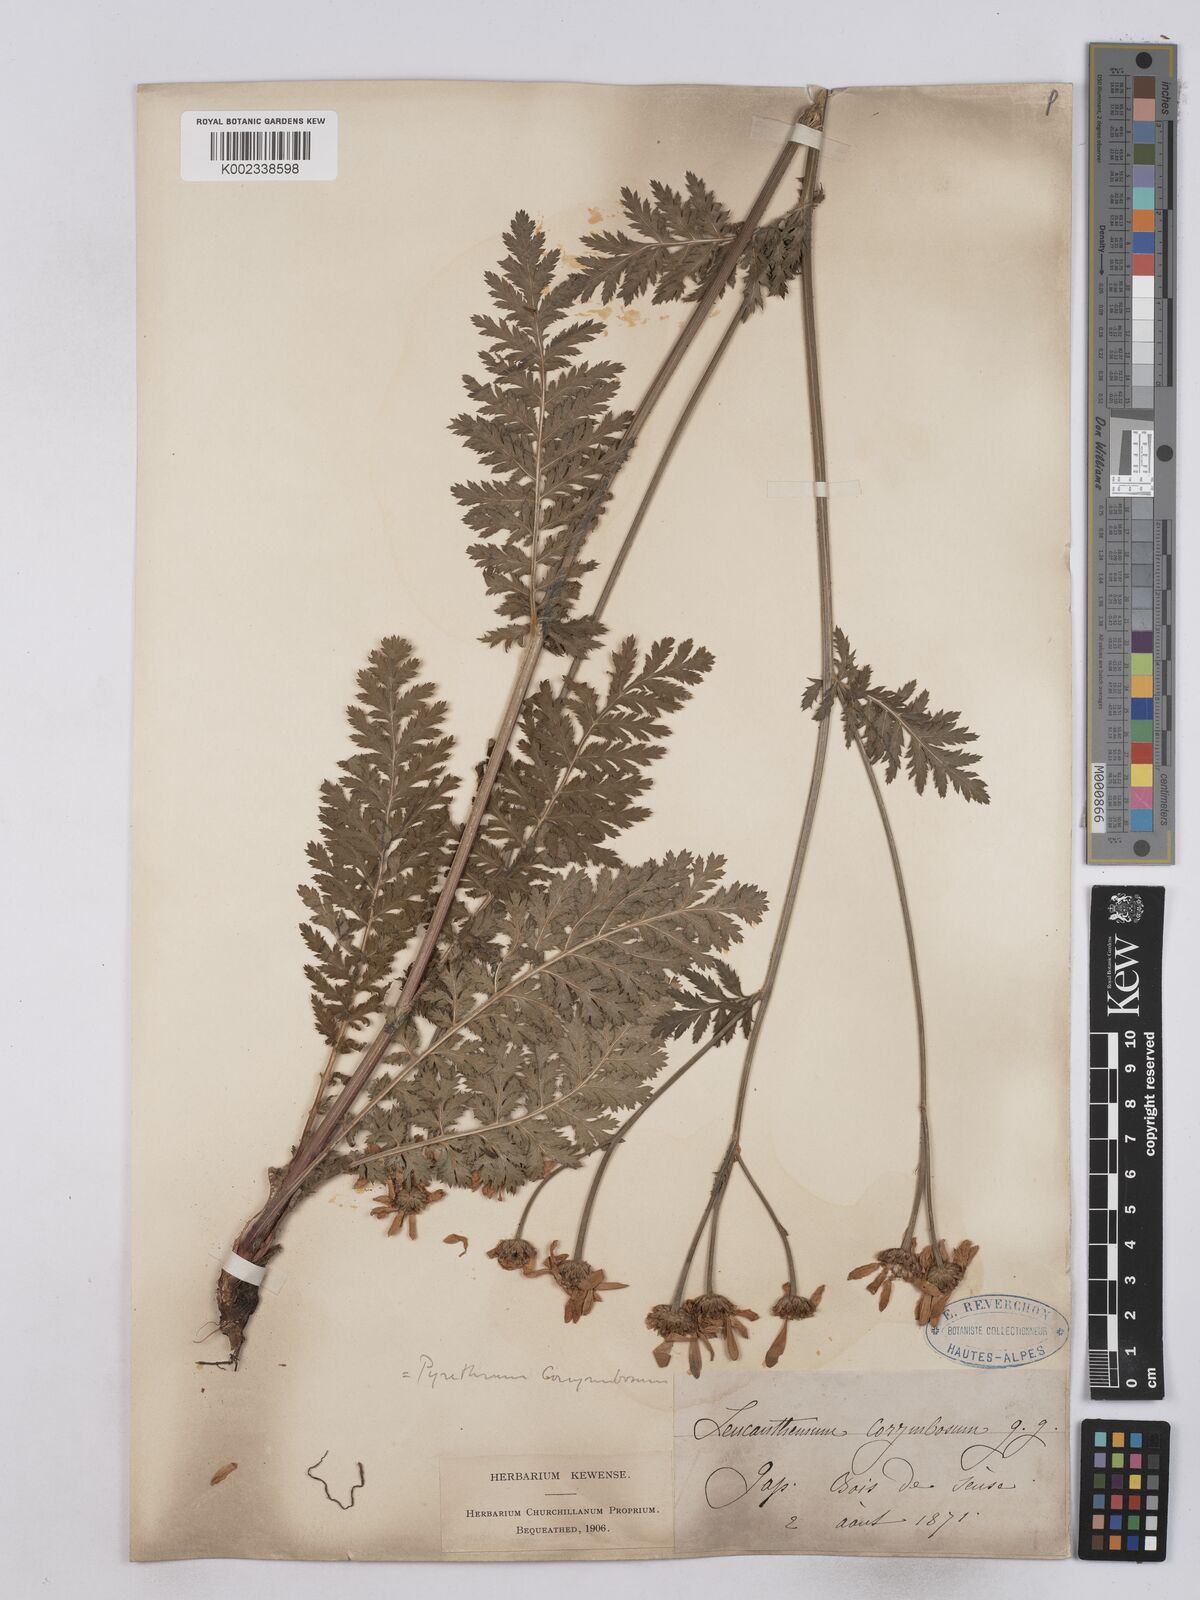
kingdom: Plantae
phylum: Tracheophyta
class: Magnoliopsida
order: Asterales
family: Asteraceae
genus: Tanacetum
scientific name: Tanacetum corymbosum
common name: Scentless feverfew
